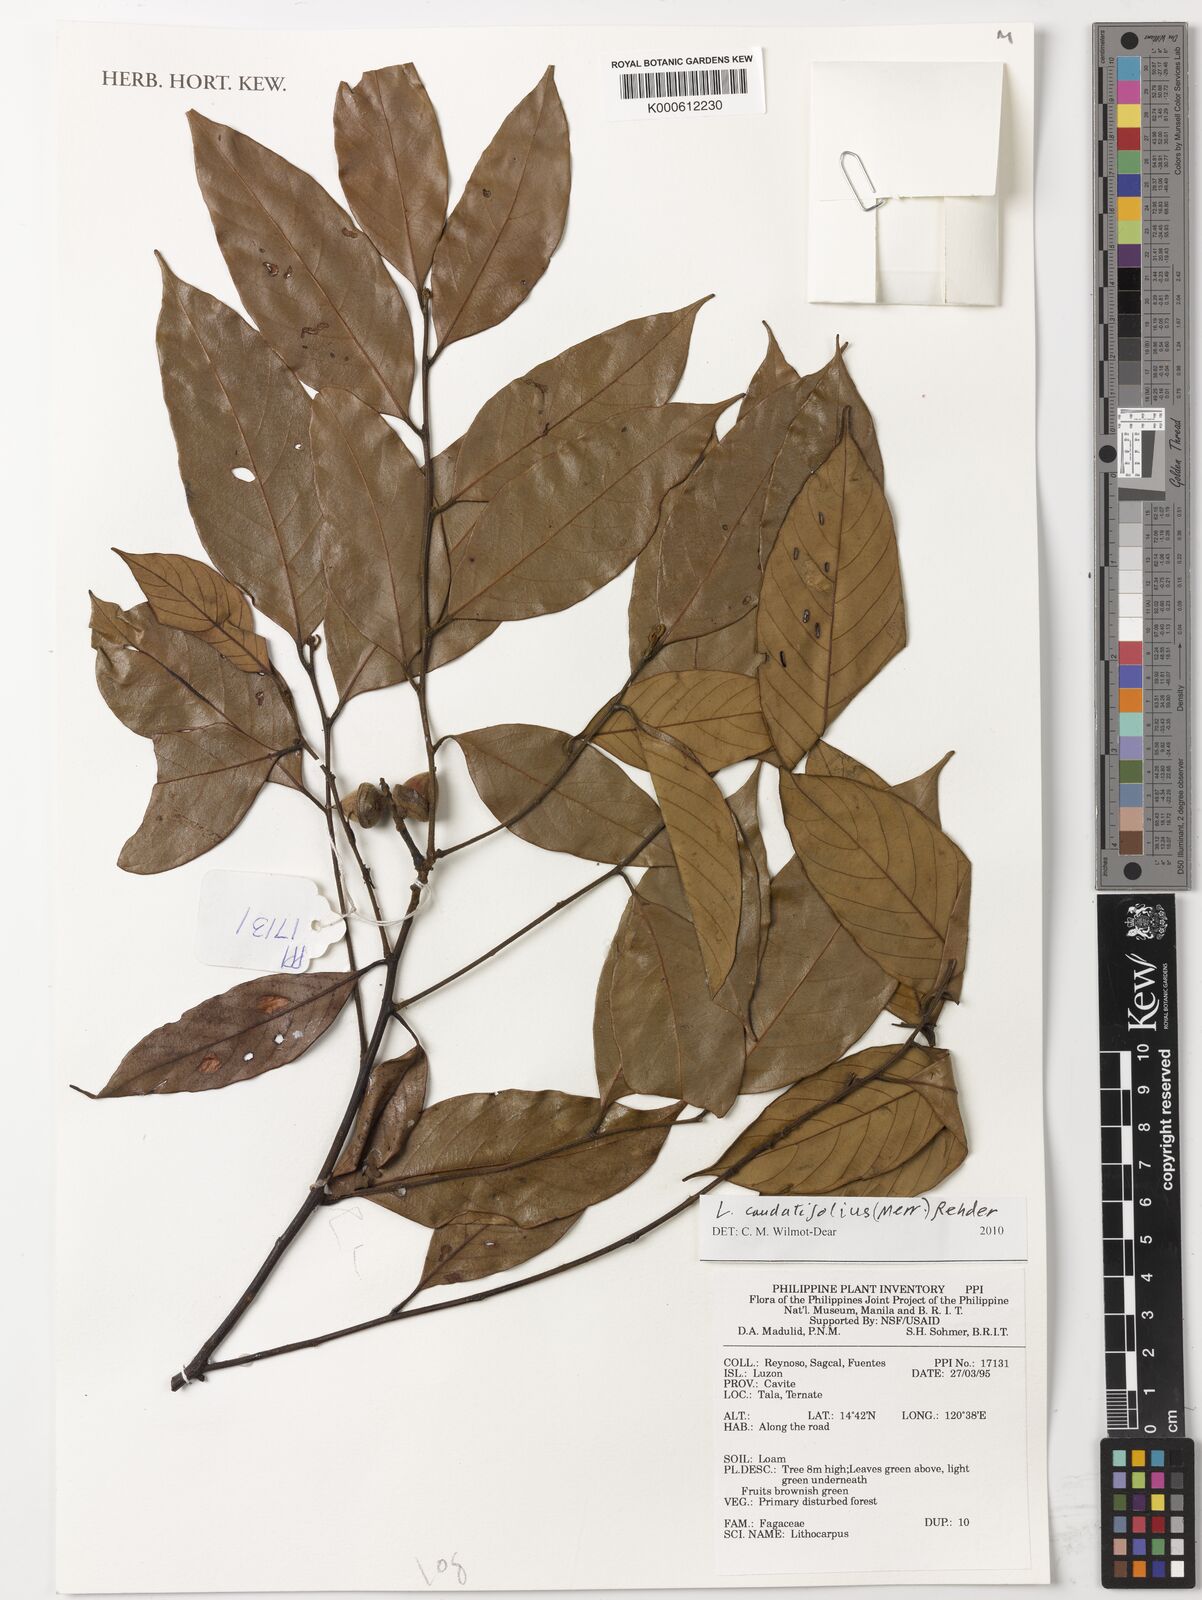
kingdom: Plantae
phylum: Tracheophyta
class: Magnoliopsida
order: Fagales
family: Fagaceae
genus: Lithocarpus
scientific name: Lithocarpus caudatifolius
